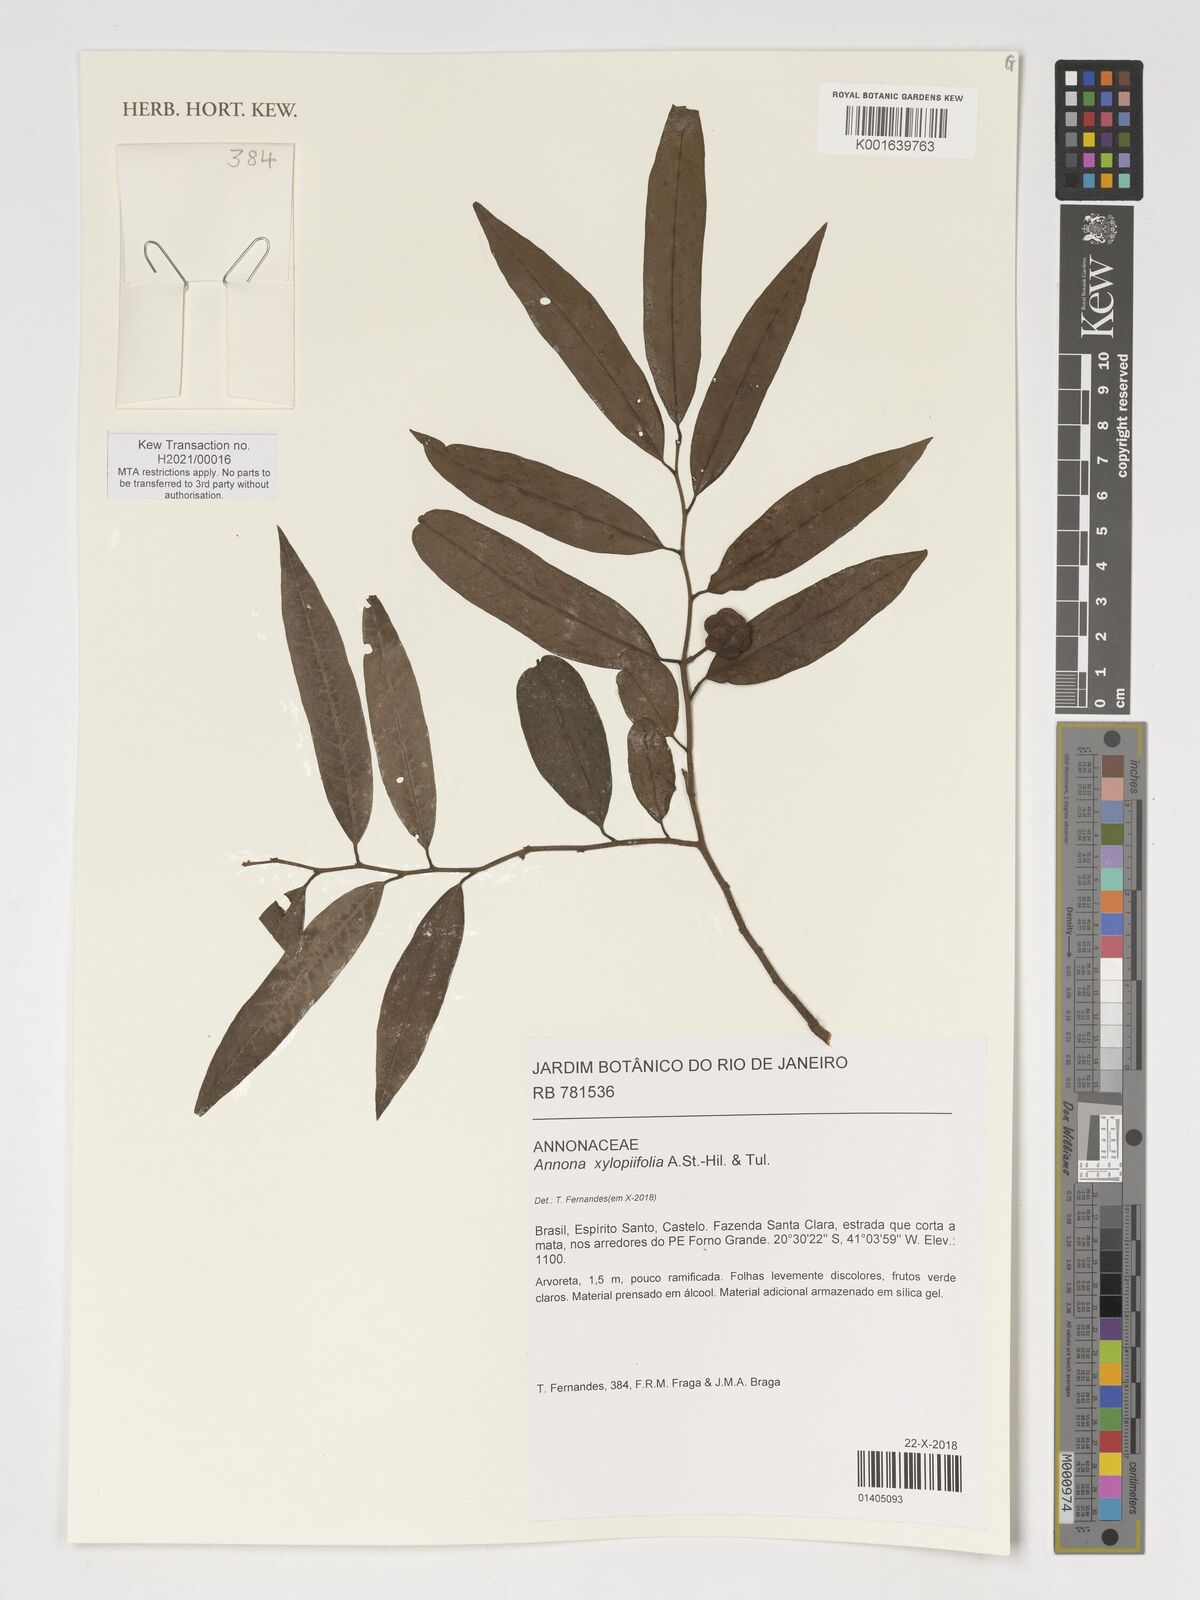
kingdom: Plantae
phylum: Tracheophyta
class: Magnoliopsida
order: Magnoliales
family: Annonaceae
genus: Annona
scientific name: Annona xylopiifolia
